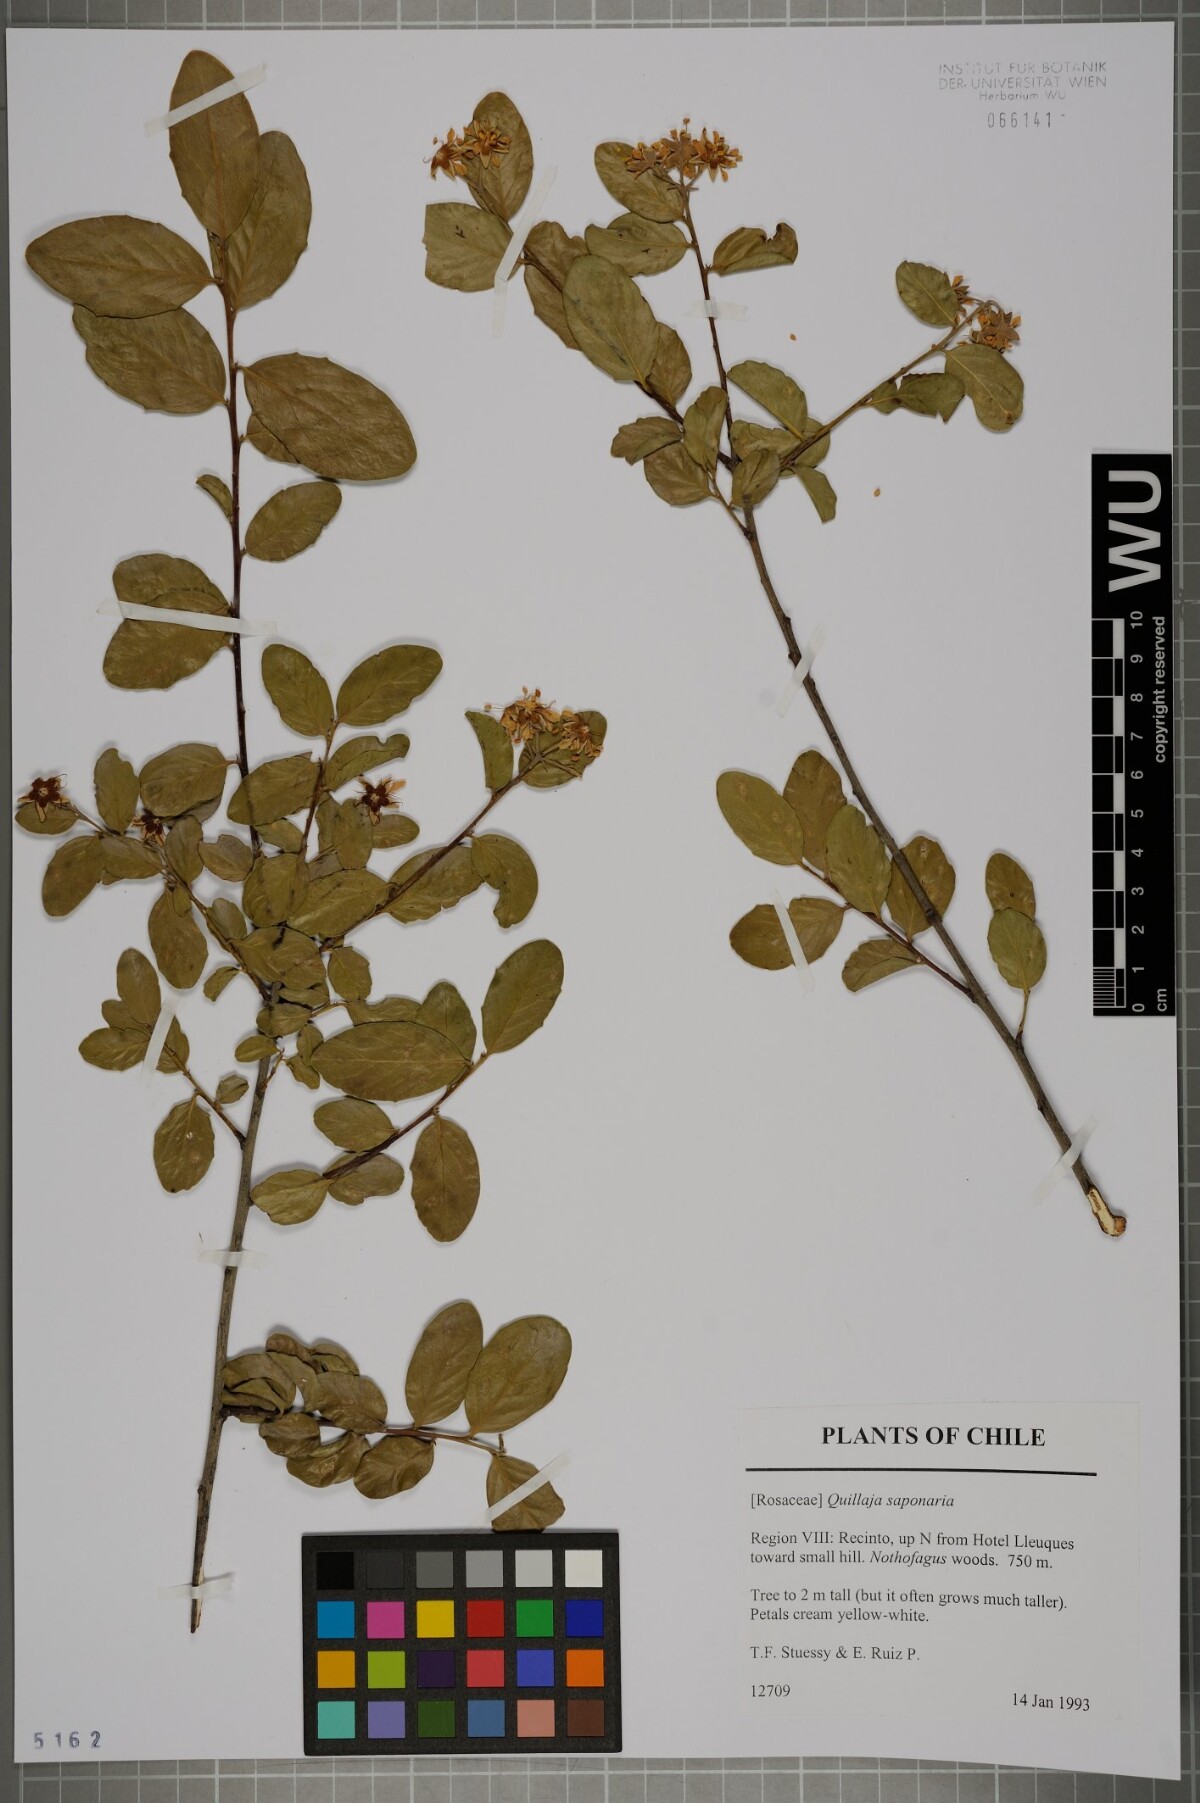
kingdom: Plantae
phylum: Tracheophyta
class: Magnoliopsida
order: Fabales
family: Quillajaceae
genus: Quillaja
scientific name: Quillaja saponaria
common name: Murillo's-bark
